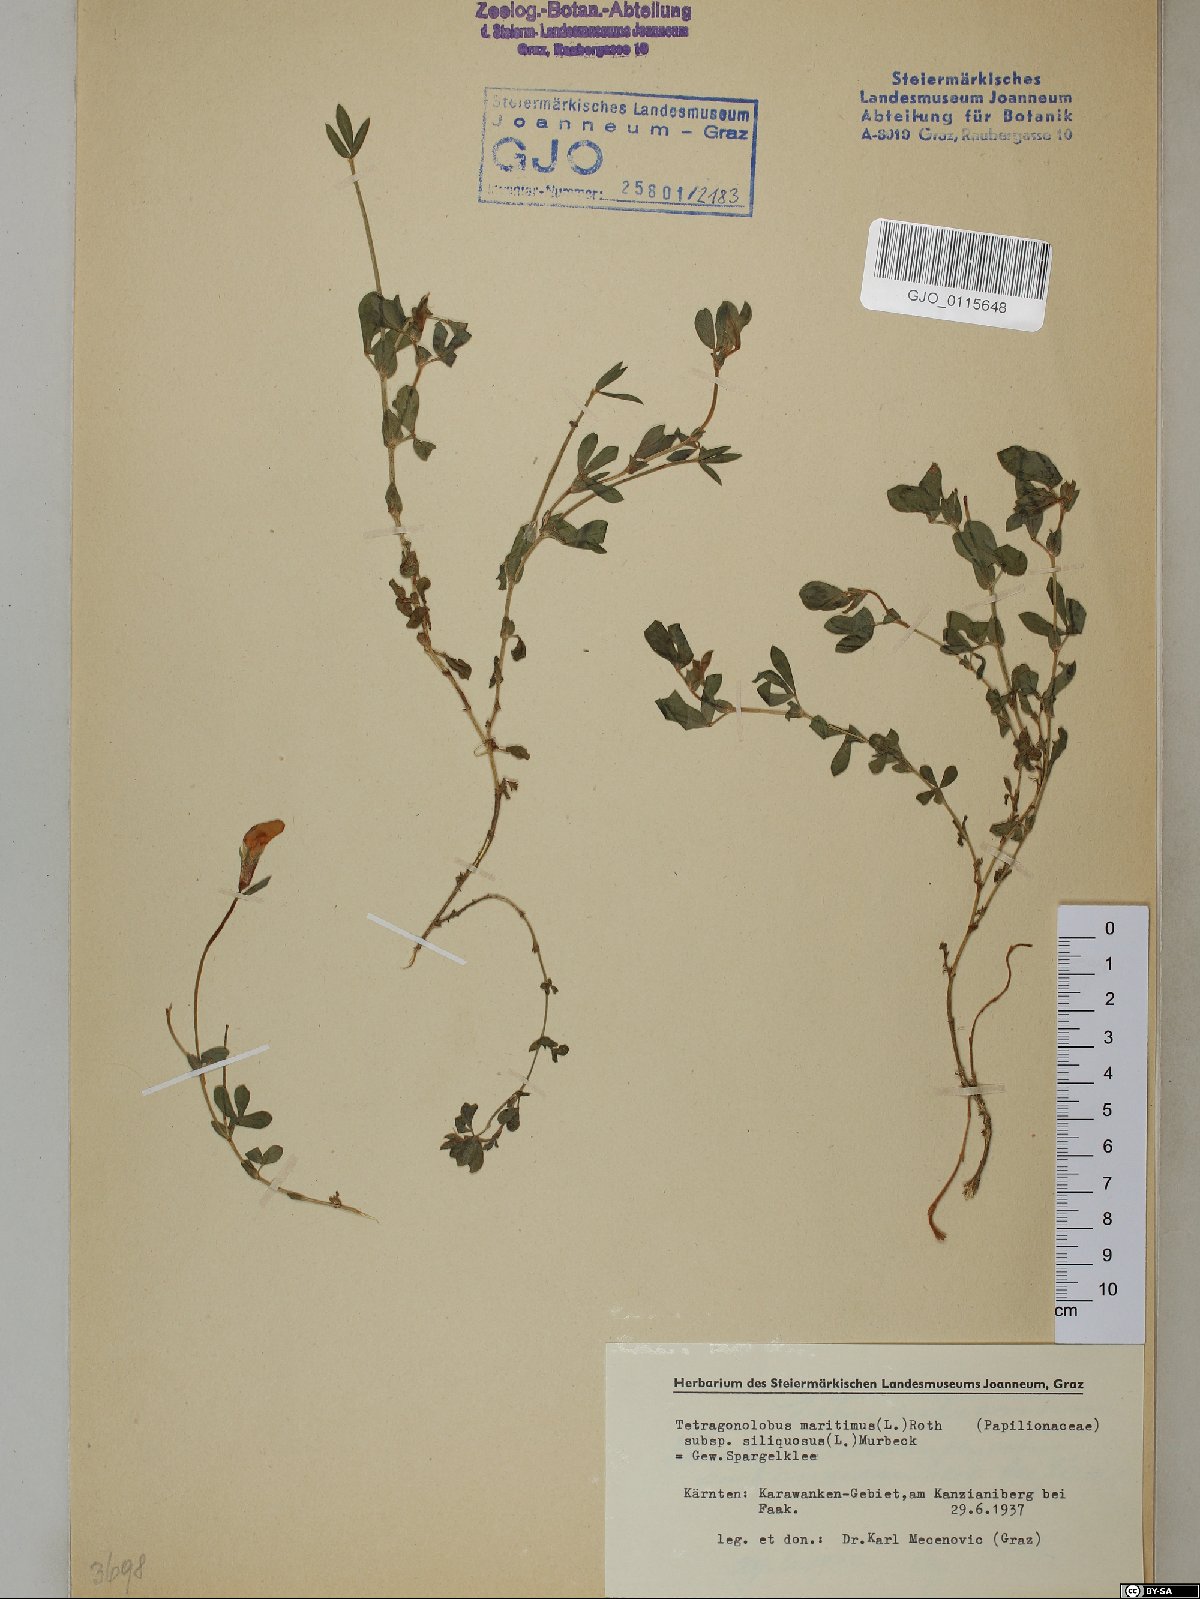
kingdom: Plantae
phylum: Tracheophyta
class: Magnoliopsida
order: Fabales
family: Fabaceae
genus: Lathyrus
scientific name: Lathyrus inconspicuus
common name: Inconspicuous pea
